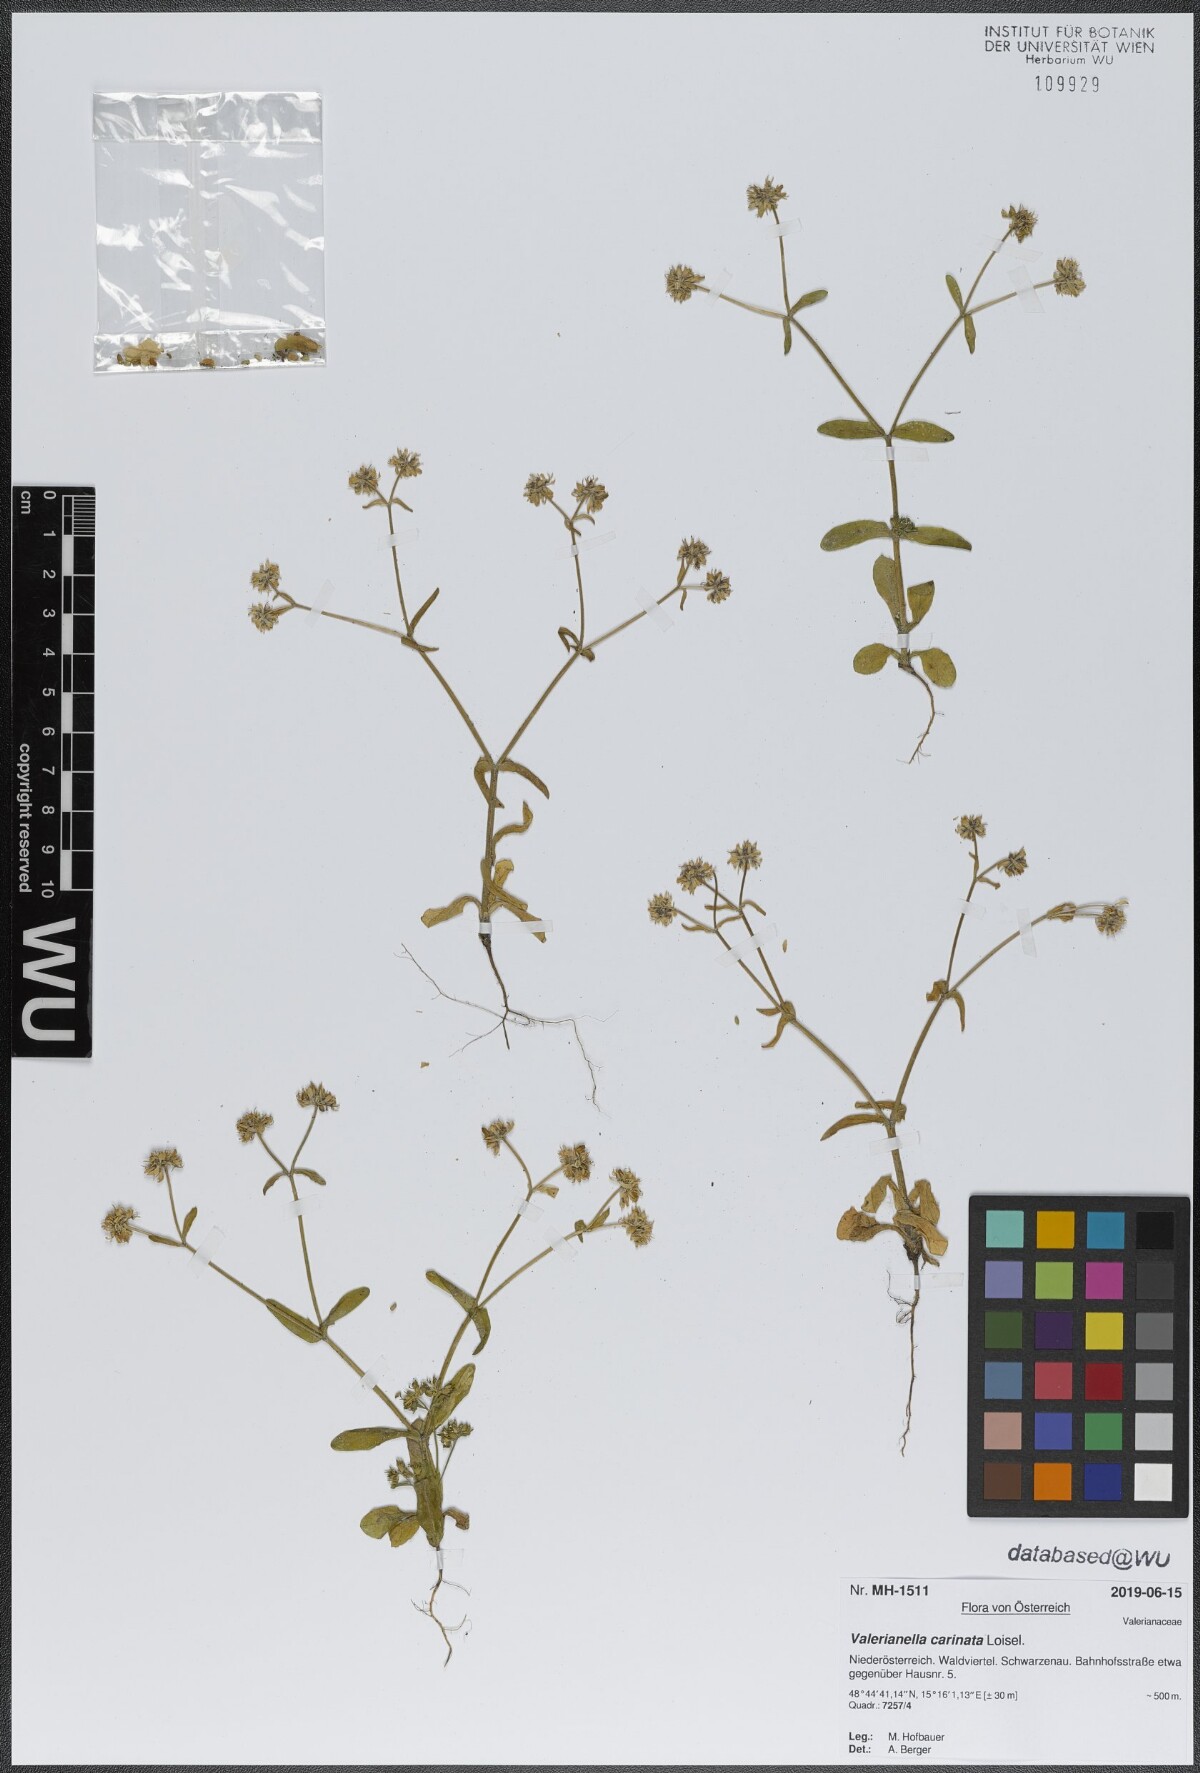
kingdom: Plantae
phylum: Tracheophyta
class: Magnoliopsida
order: Dipsacales
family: Caprifoliaceae
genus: Valerianella
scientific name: Valerianella carinata
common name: Keeled-fruited cornsalad
